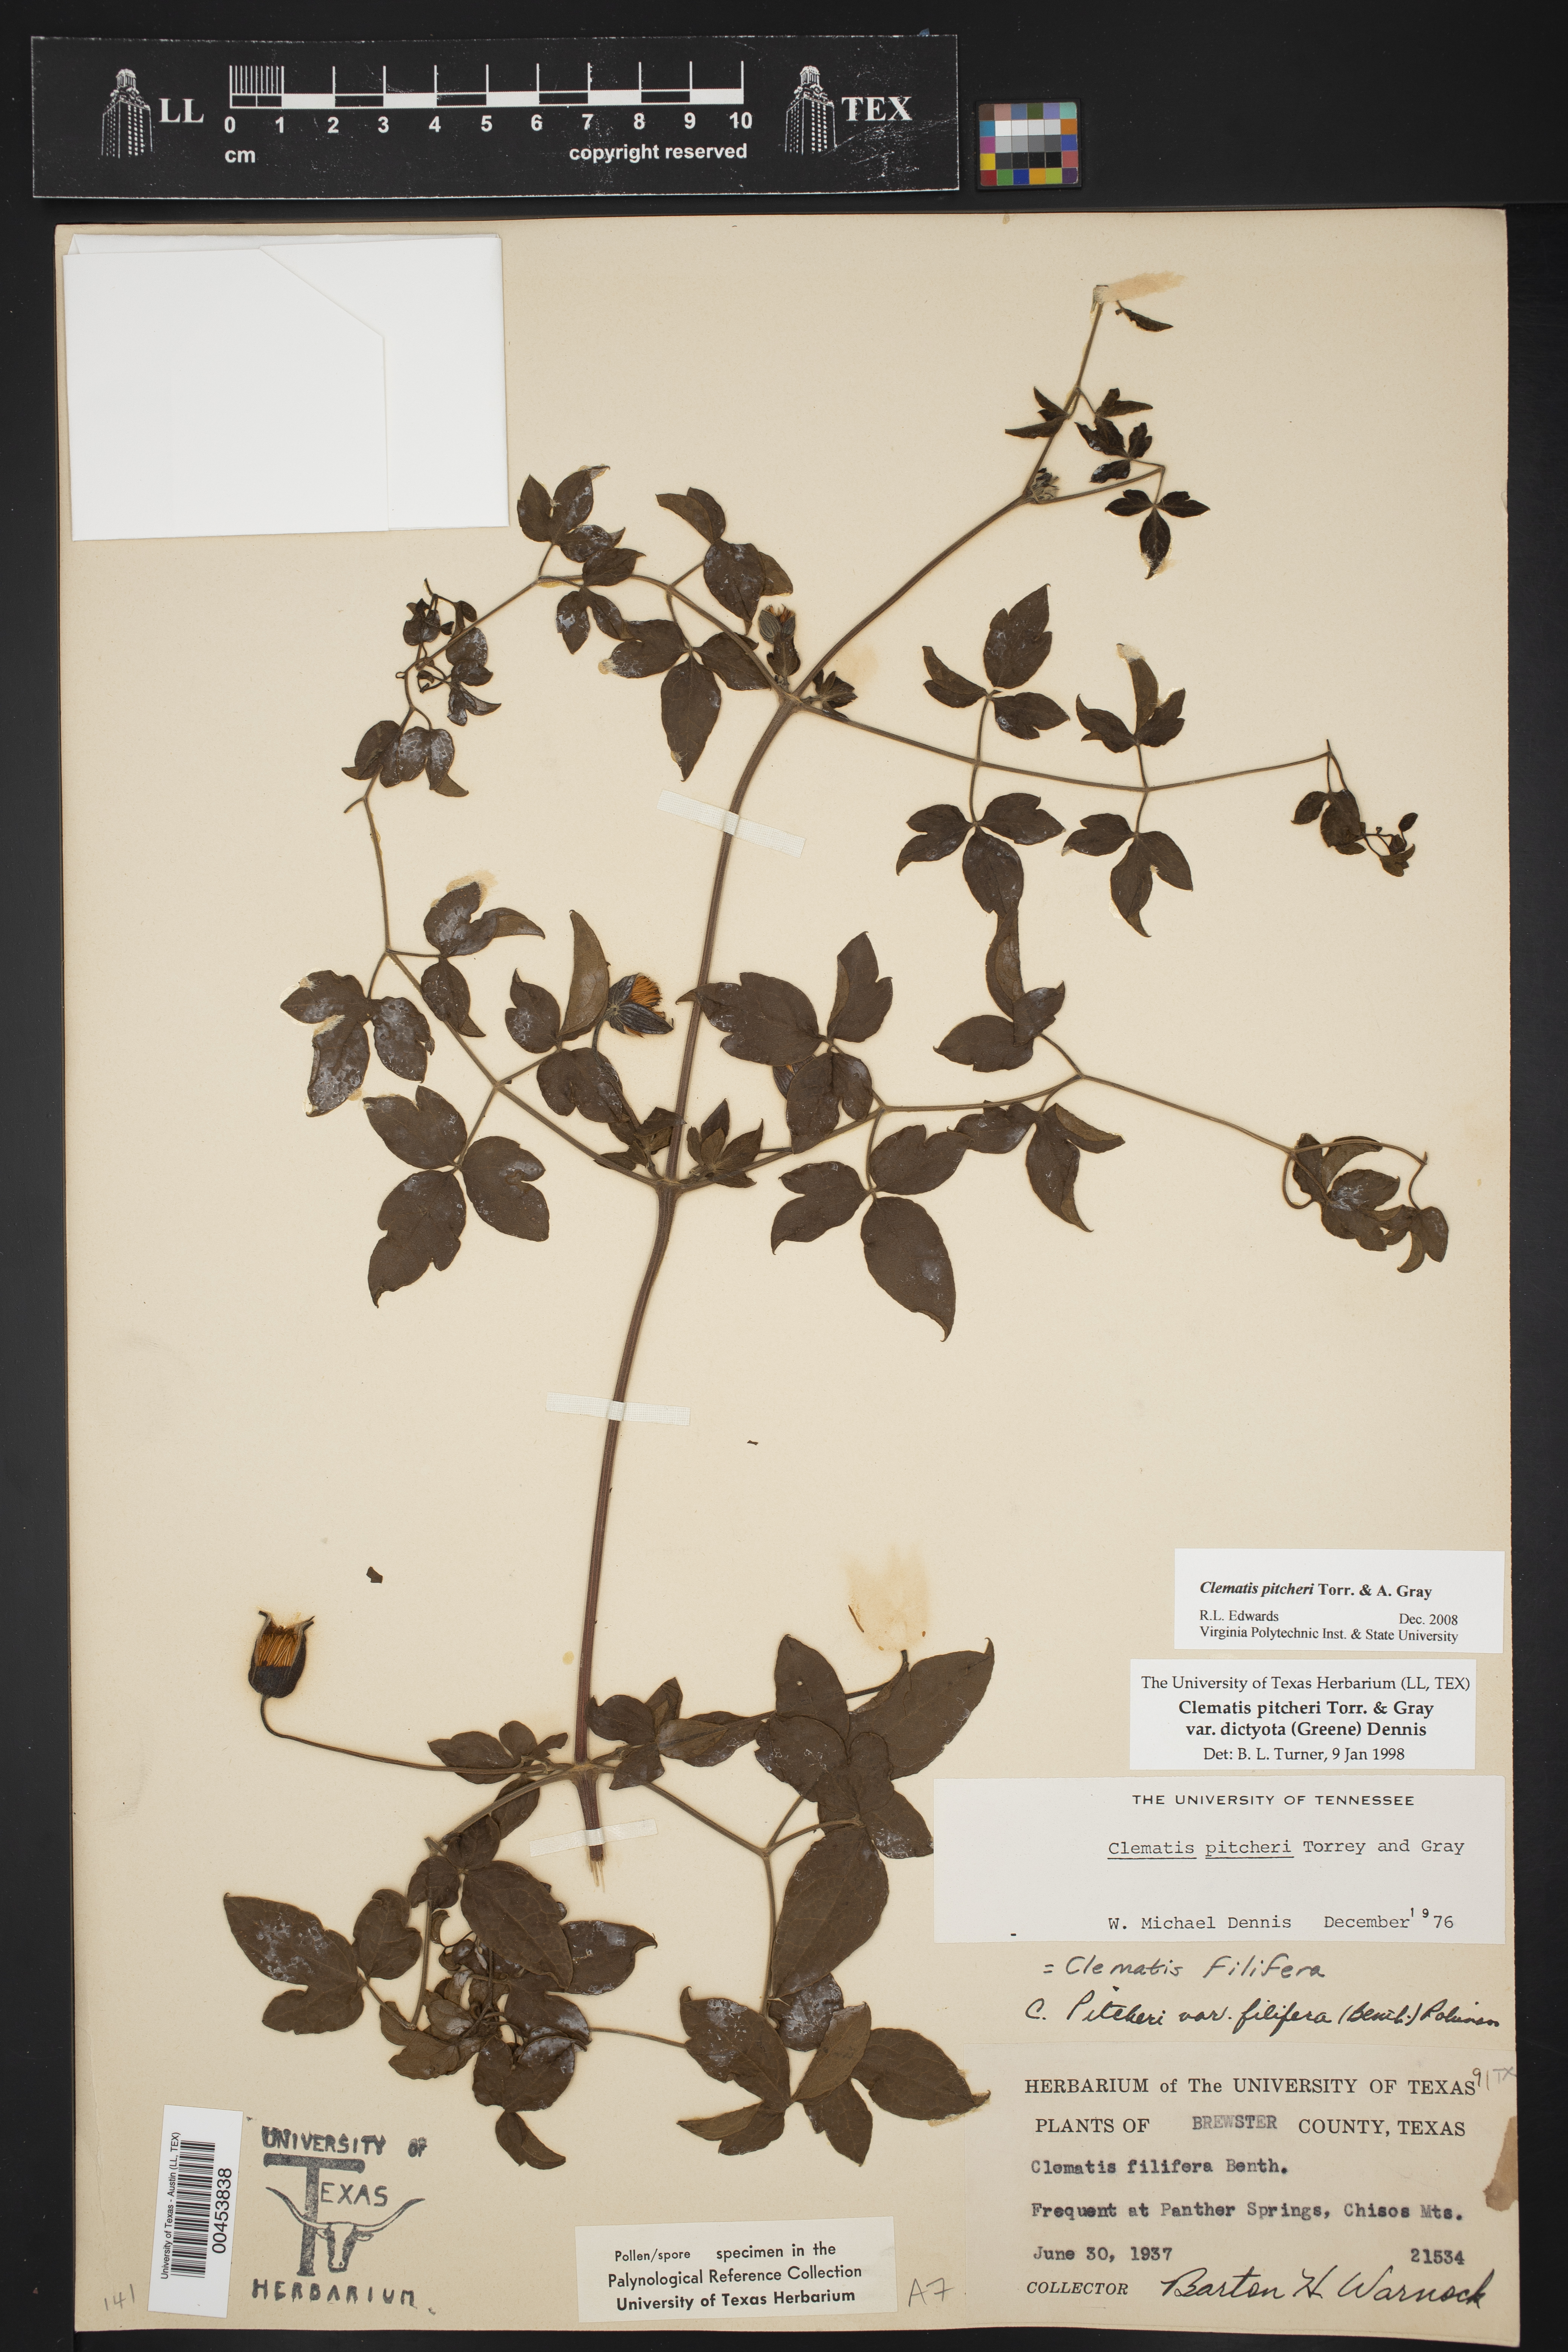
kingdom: Plantae
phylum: Tracheophyta
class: Magnoliopsida
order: Ranunculales
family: Ranunculaceae
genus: Clematis
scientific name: Clematis pitcheri
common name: Bellflower clematis
